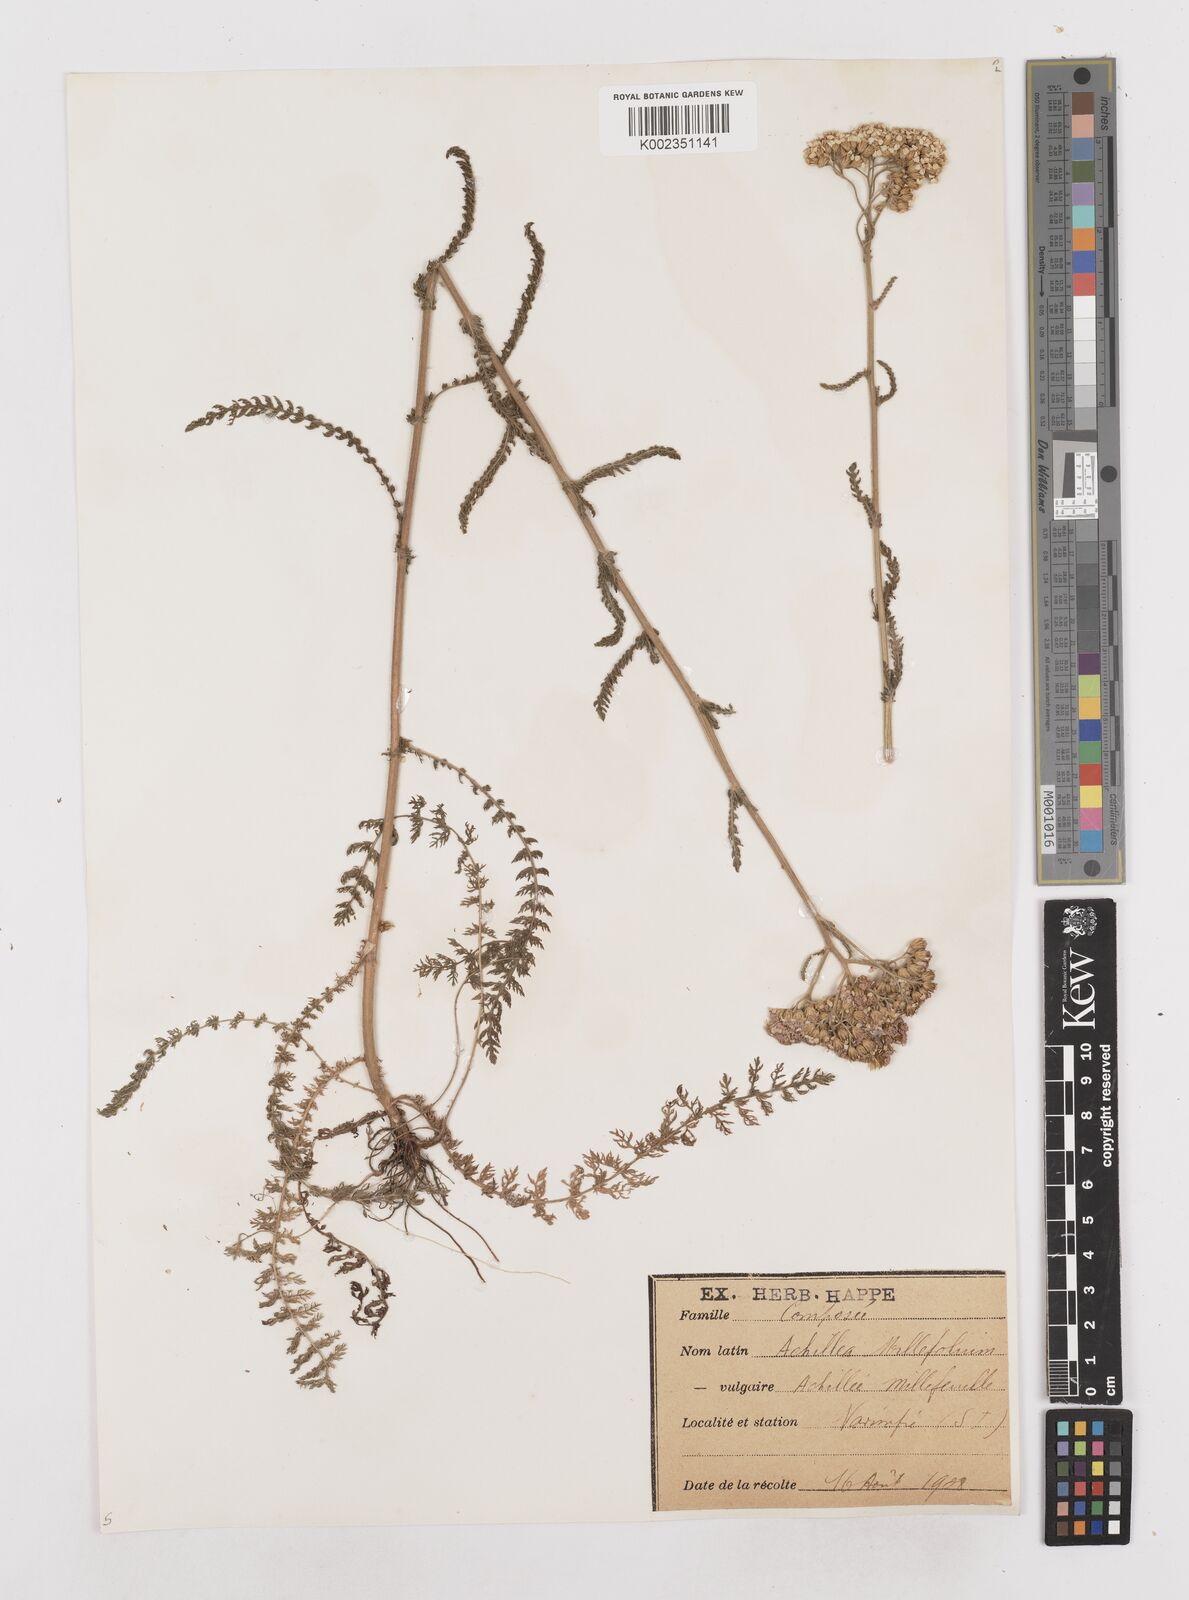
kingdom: Plantae
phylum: Tracheophyta
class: Magnoliopsida
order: Asterales
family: Asteraceae
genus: Achillea
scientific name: Achillea millefolium
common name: Yarrow
